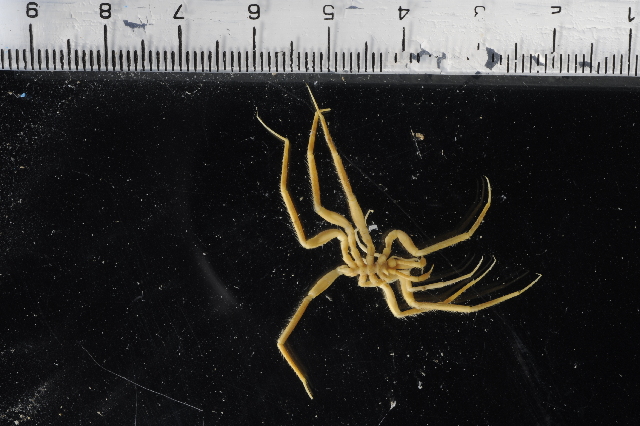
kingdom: Animalia
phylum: Arthropoda
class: Pycnogonida
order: Pantopoda
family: Nymphonidae
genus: Nymphon
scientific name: Nymphon australe
